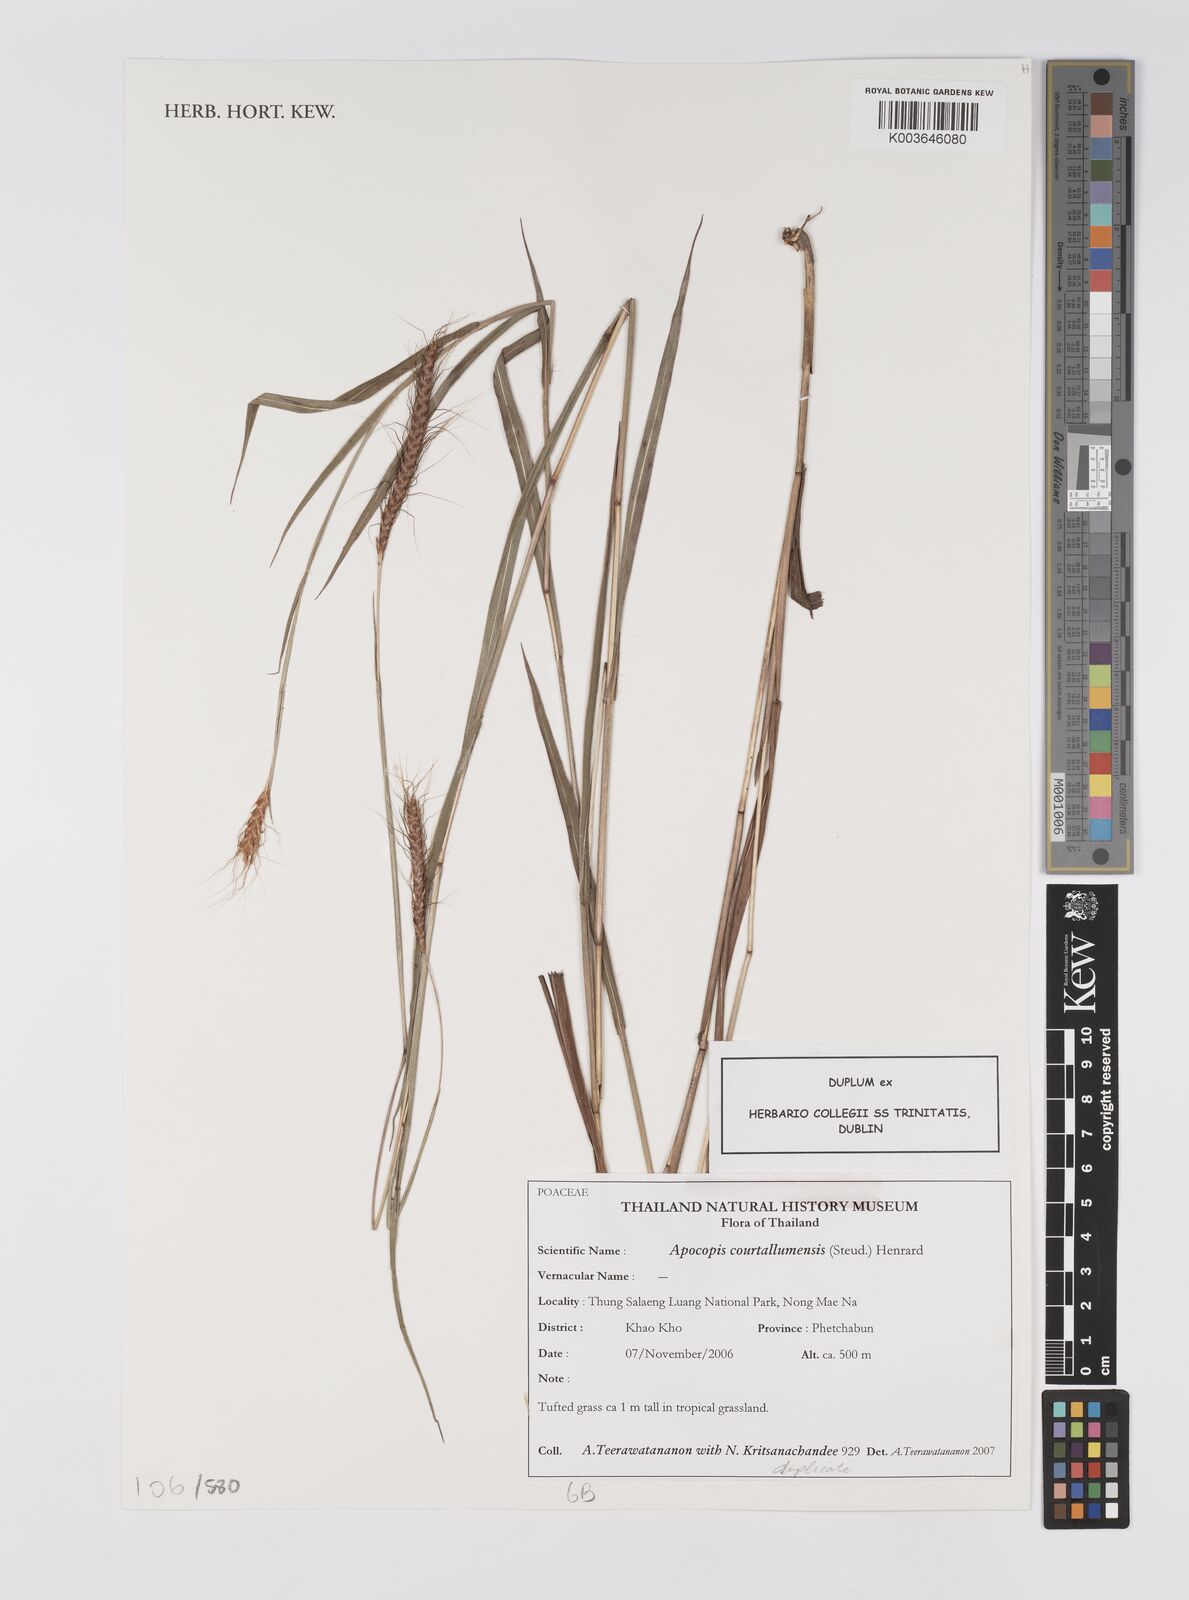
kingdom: Plantae
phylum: Tracheophyta
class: Liliopsida
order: Poales
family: Poaceae
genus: Apocopis
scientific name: Apocopis courtallumensis
